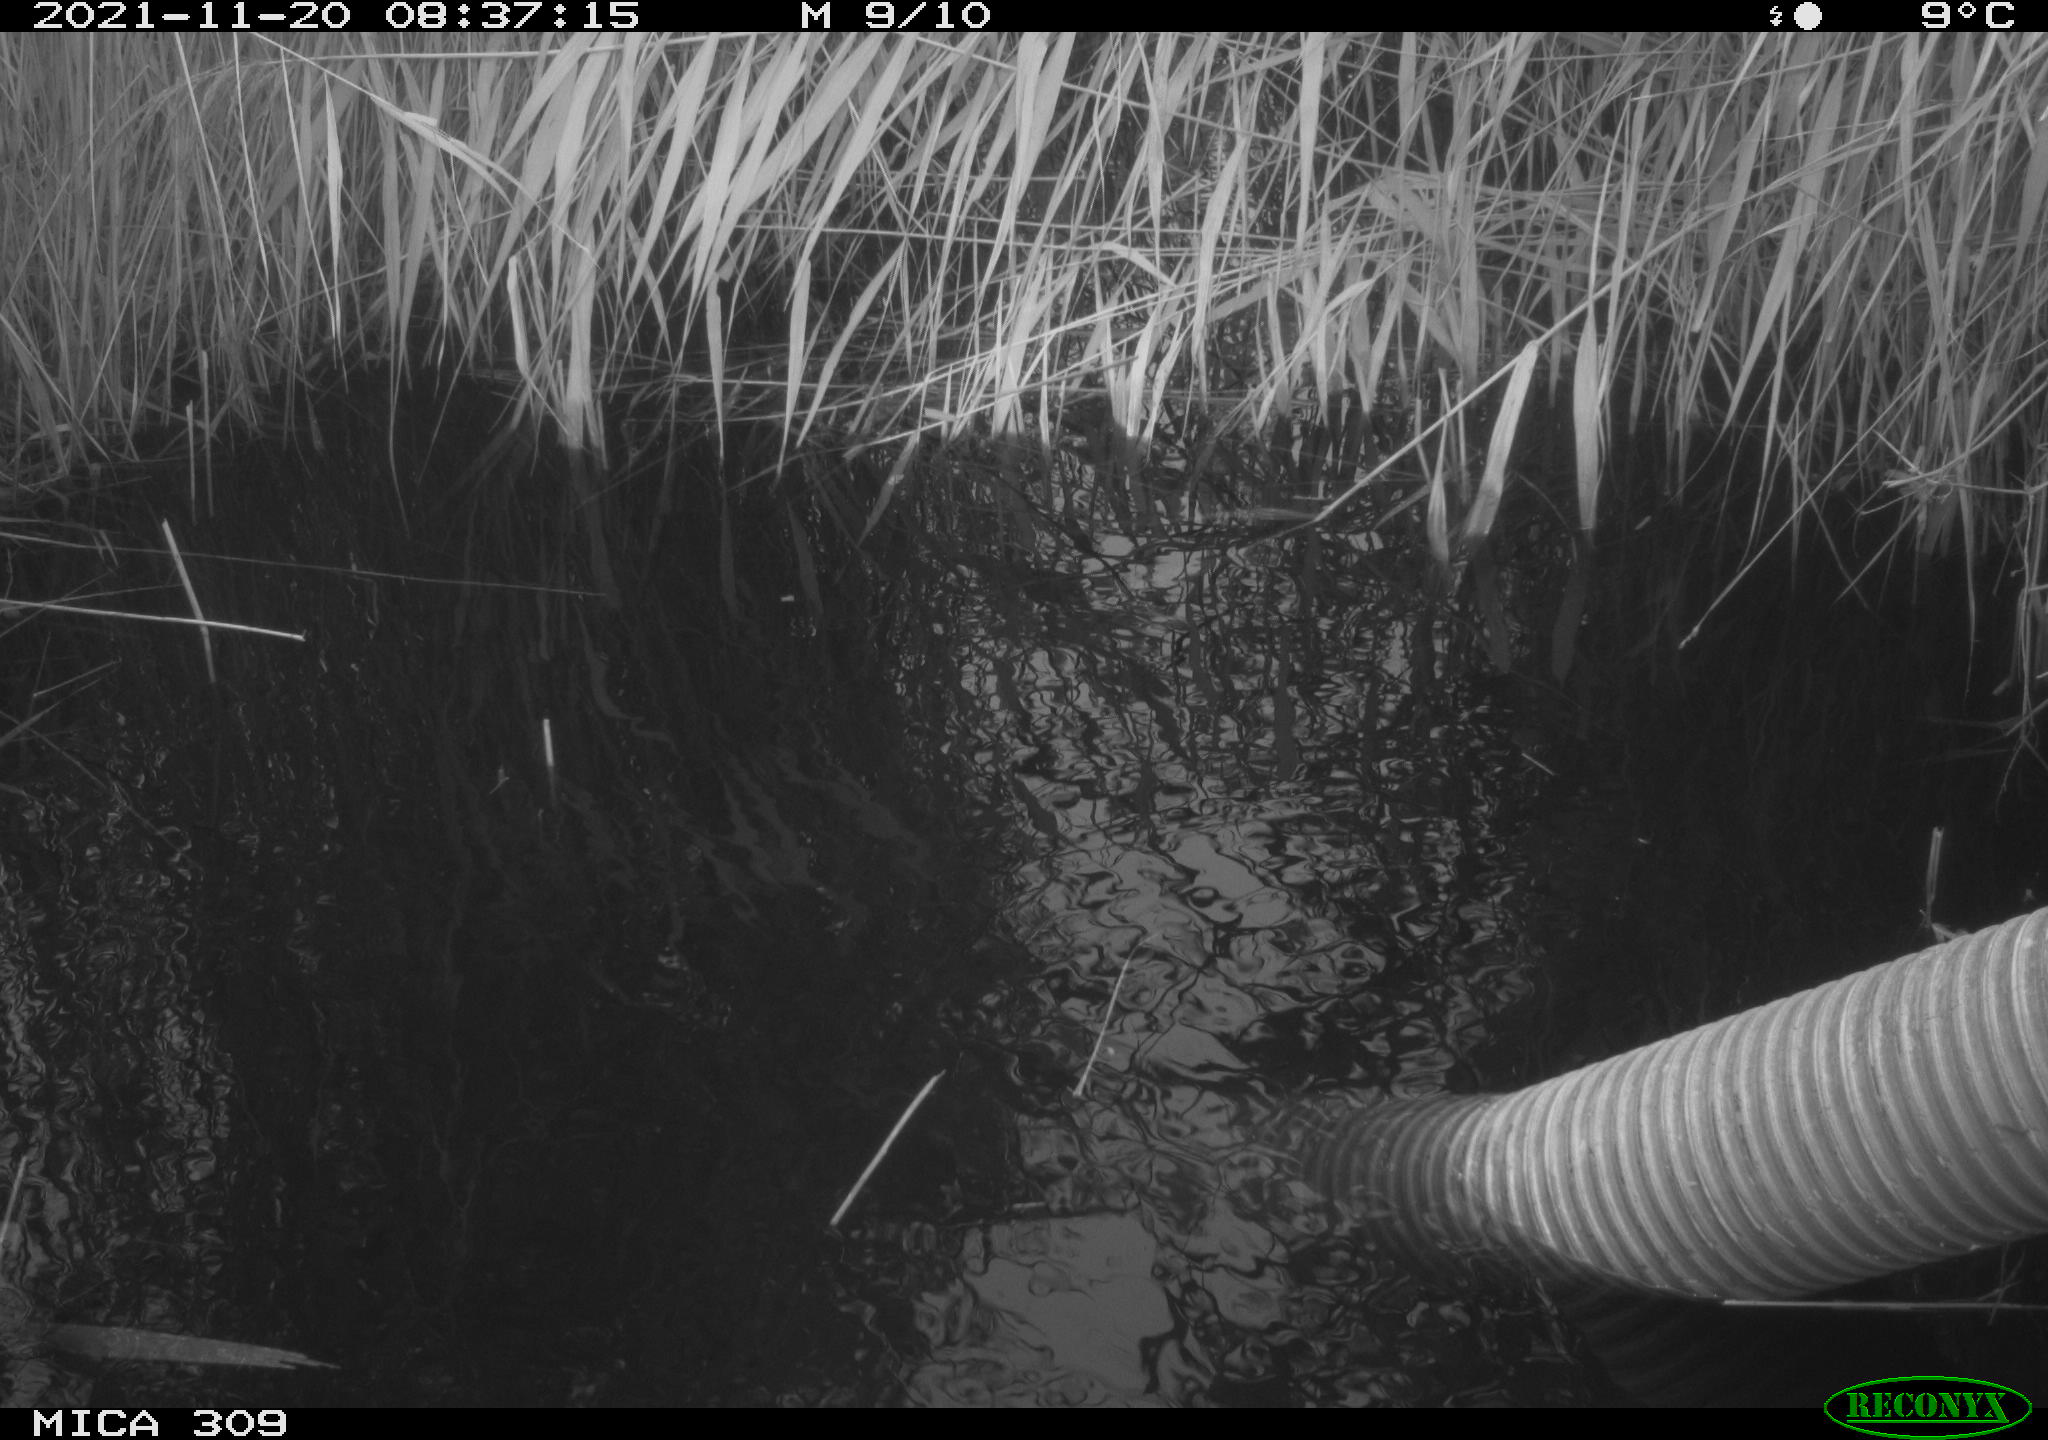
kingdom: Animalia
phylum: Chordata
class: Aves
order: Gruiformes
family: Rallidae
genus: Gallinula
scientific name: Gallinula chloropus
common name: Common moorhen
